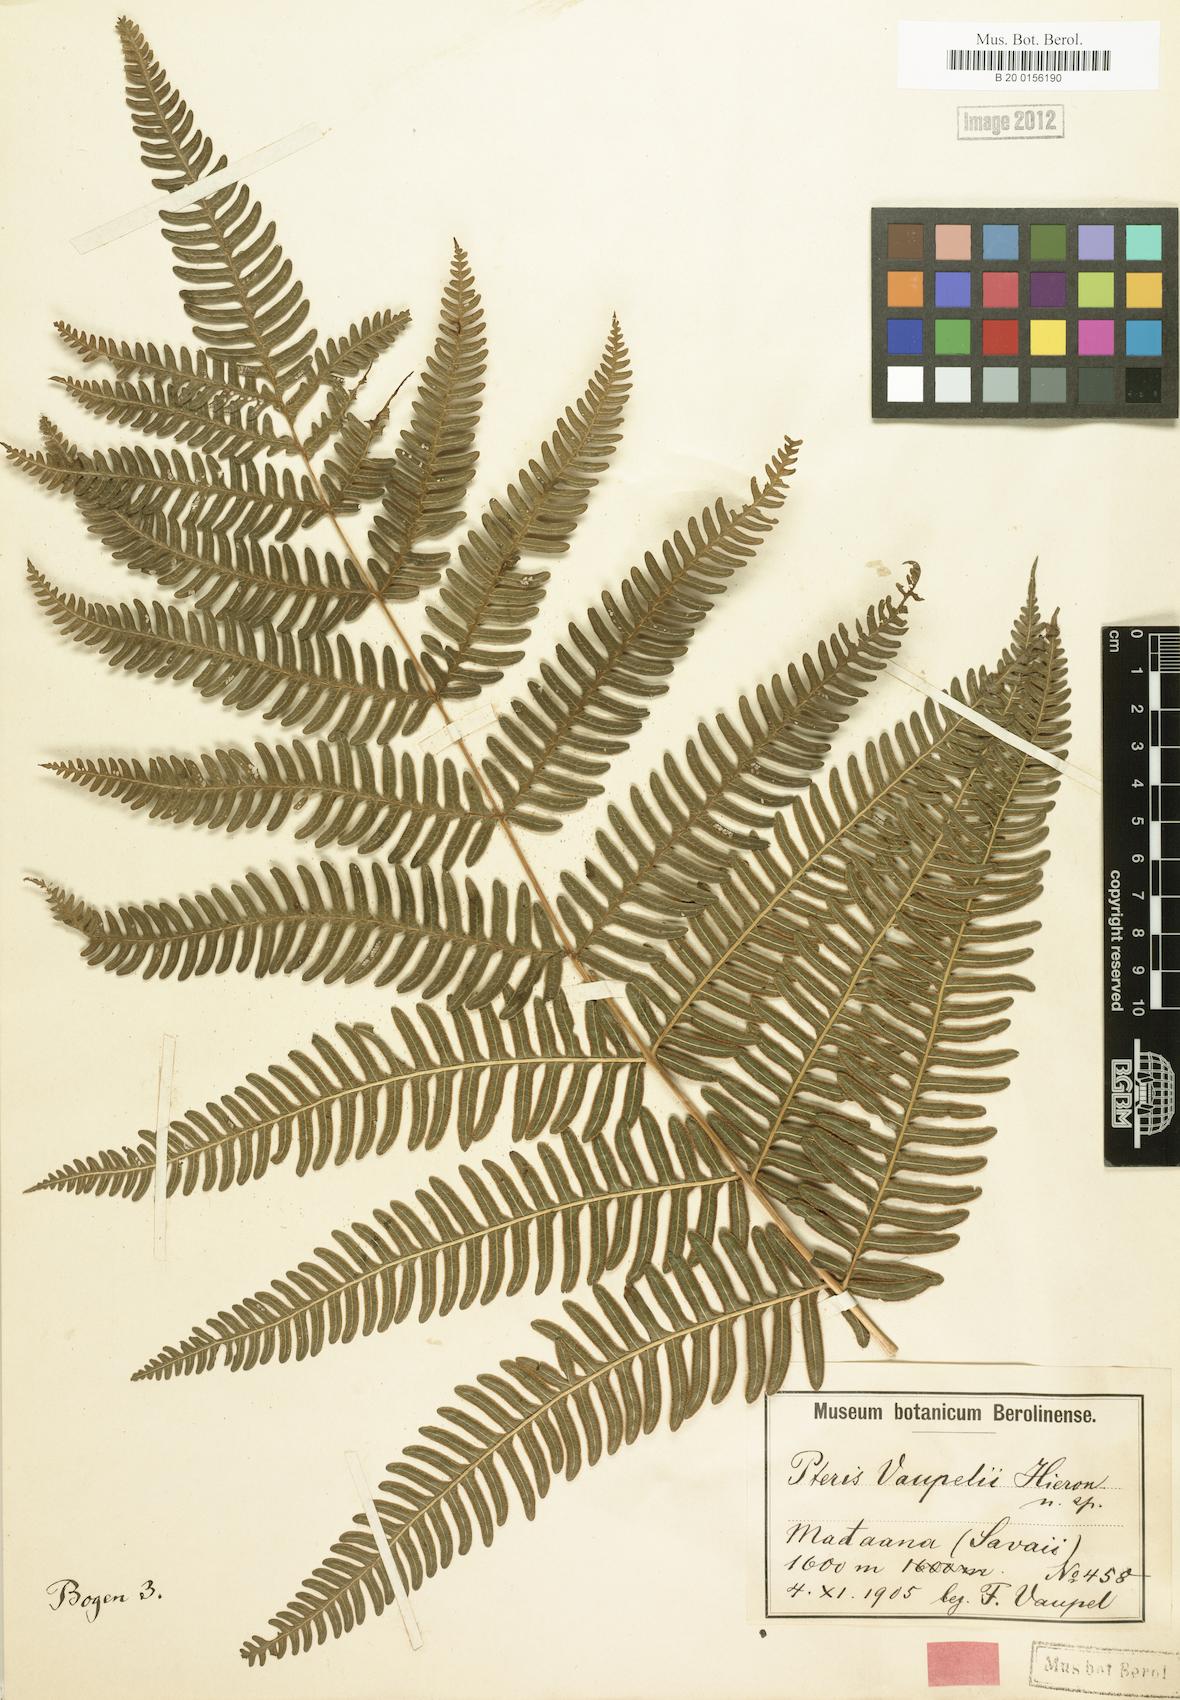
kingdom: Plantae
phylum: Tracheophyta
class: Polypodiopsida
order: Polypodiales
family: Pteridaceae
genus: Pteris
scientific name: Pteris vaupelii
